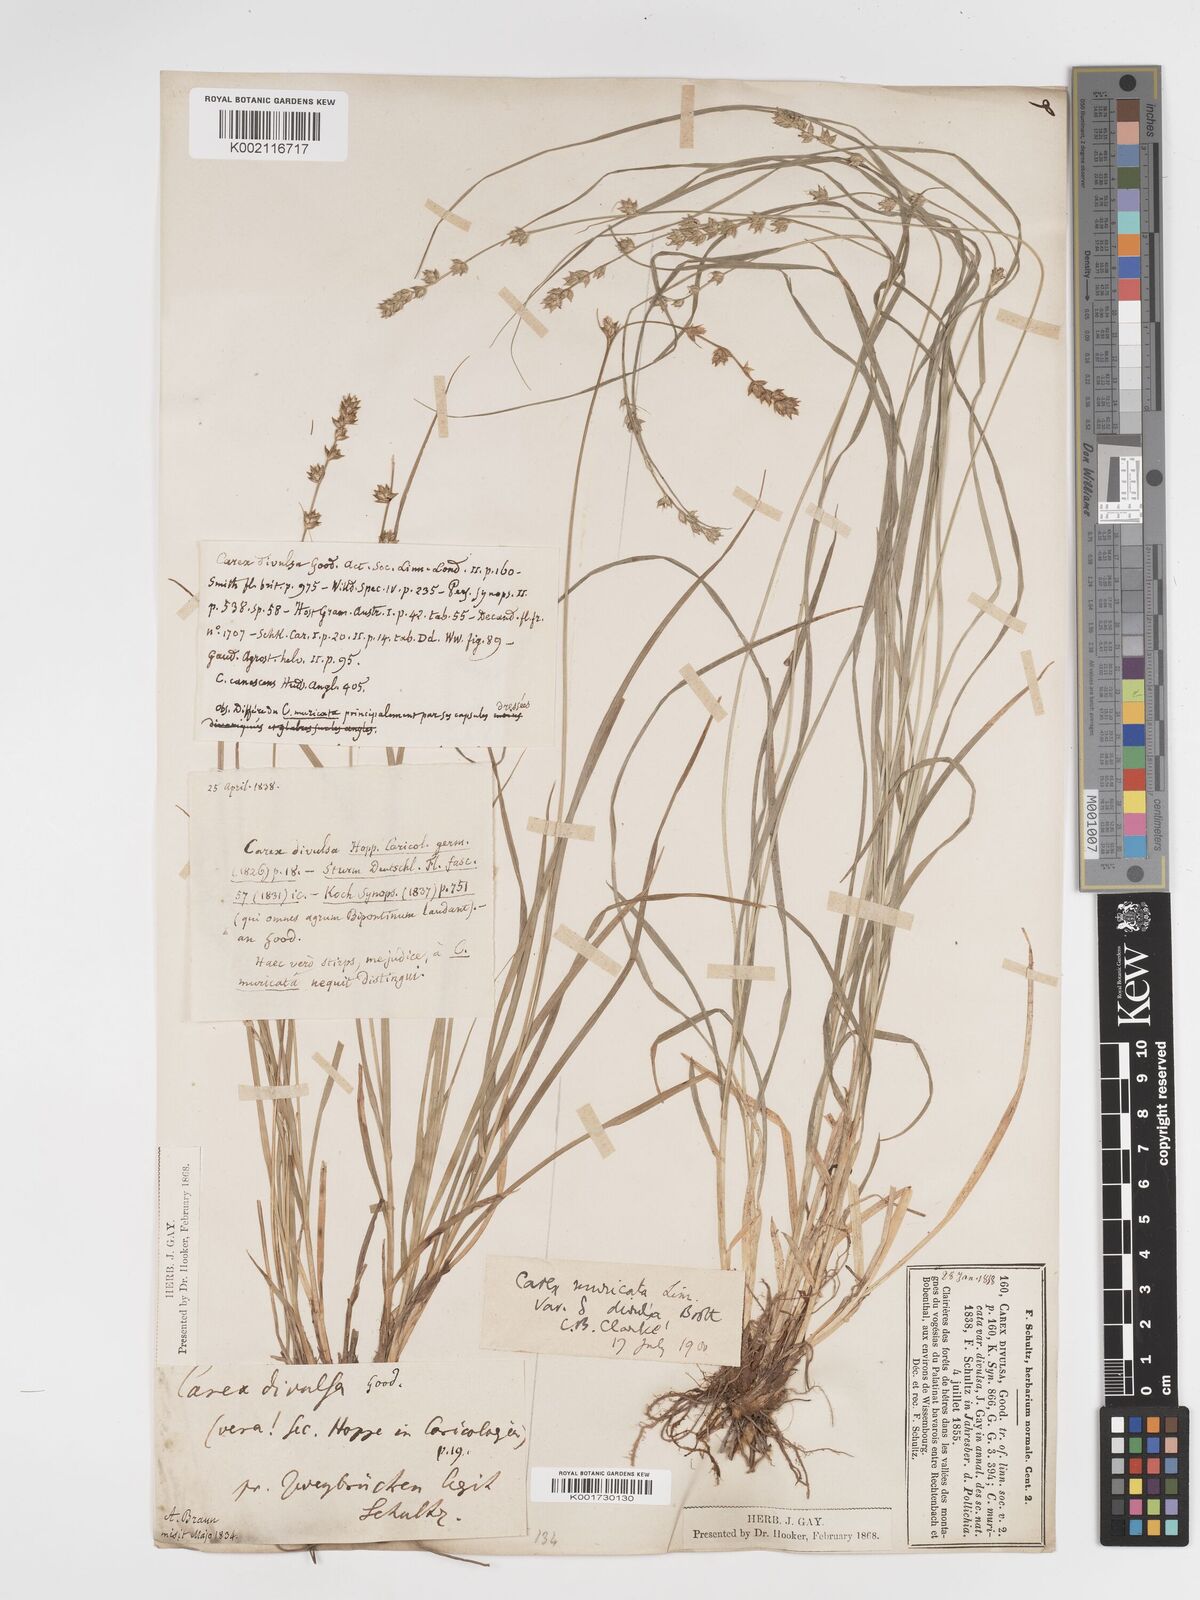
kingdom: Plantae
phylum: Tracheophyta
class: Liliopsida
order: Poales
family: Cyperaceae
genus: Carex
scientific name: Carex divulsa
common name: Grassland sedge
